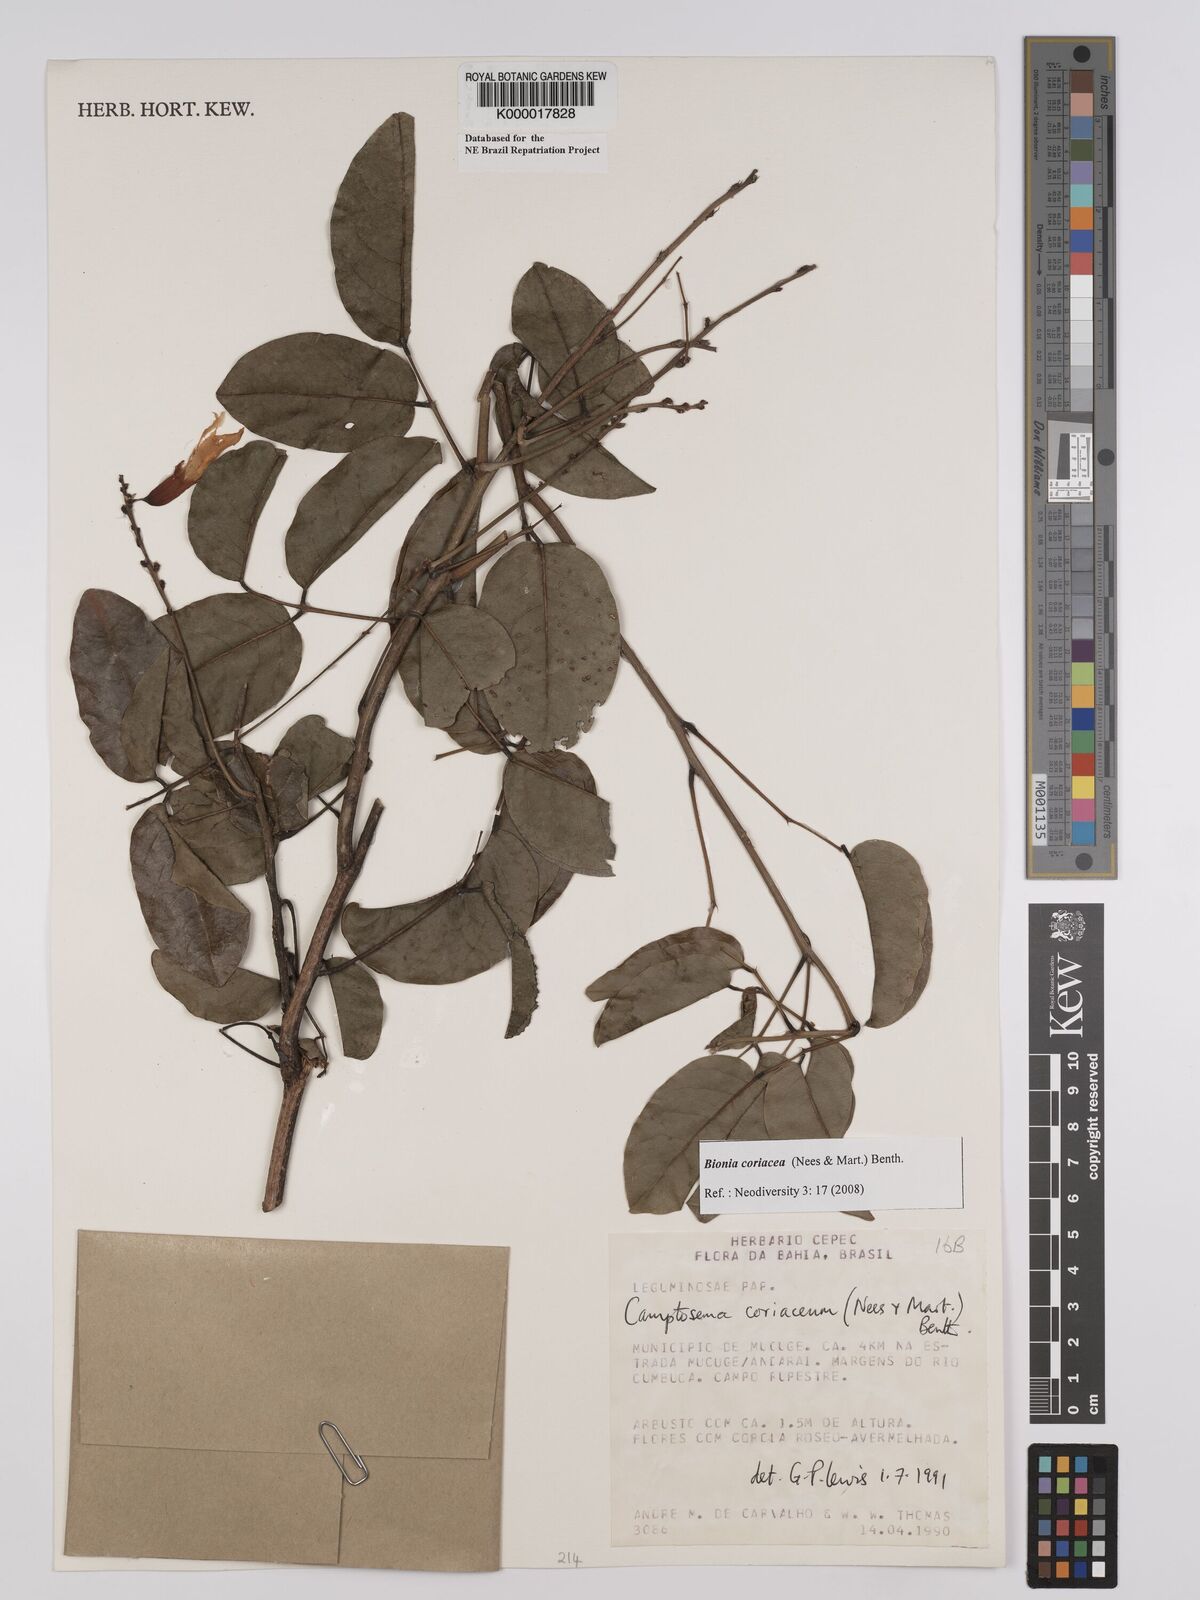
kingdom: Plantae
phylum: Tracheophyta
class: Magnoliopsida
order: Fabales
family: Fabaceae
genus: Camptosema
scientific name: Camptosema coriaceum
